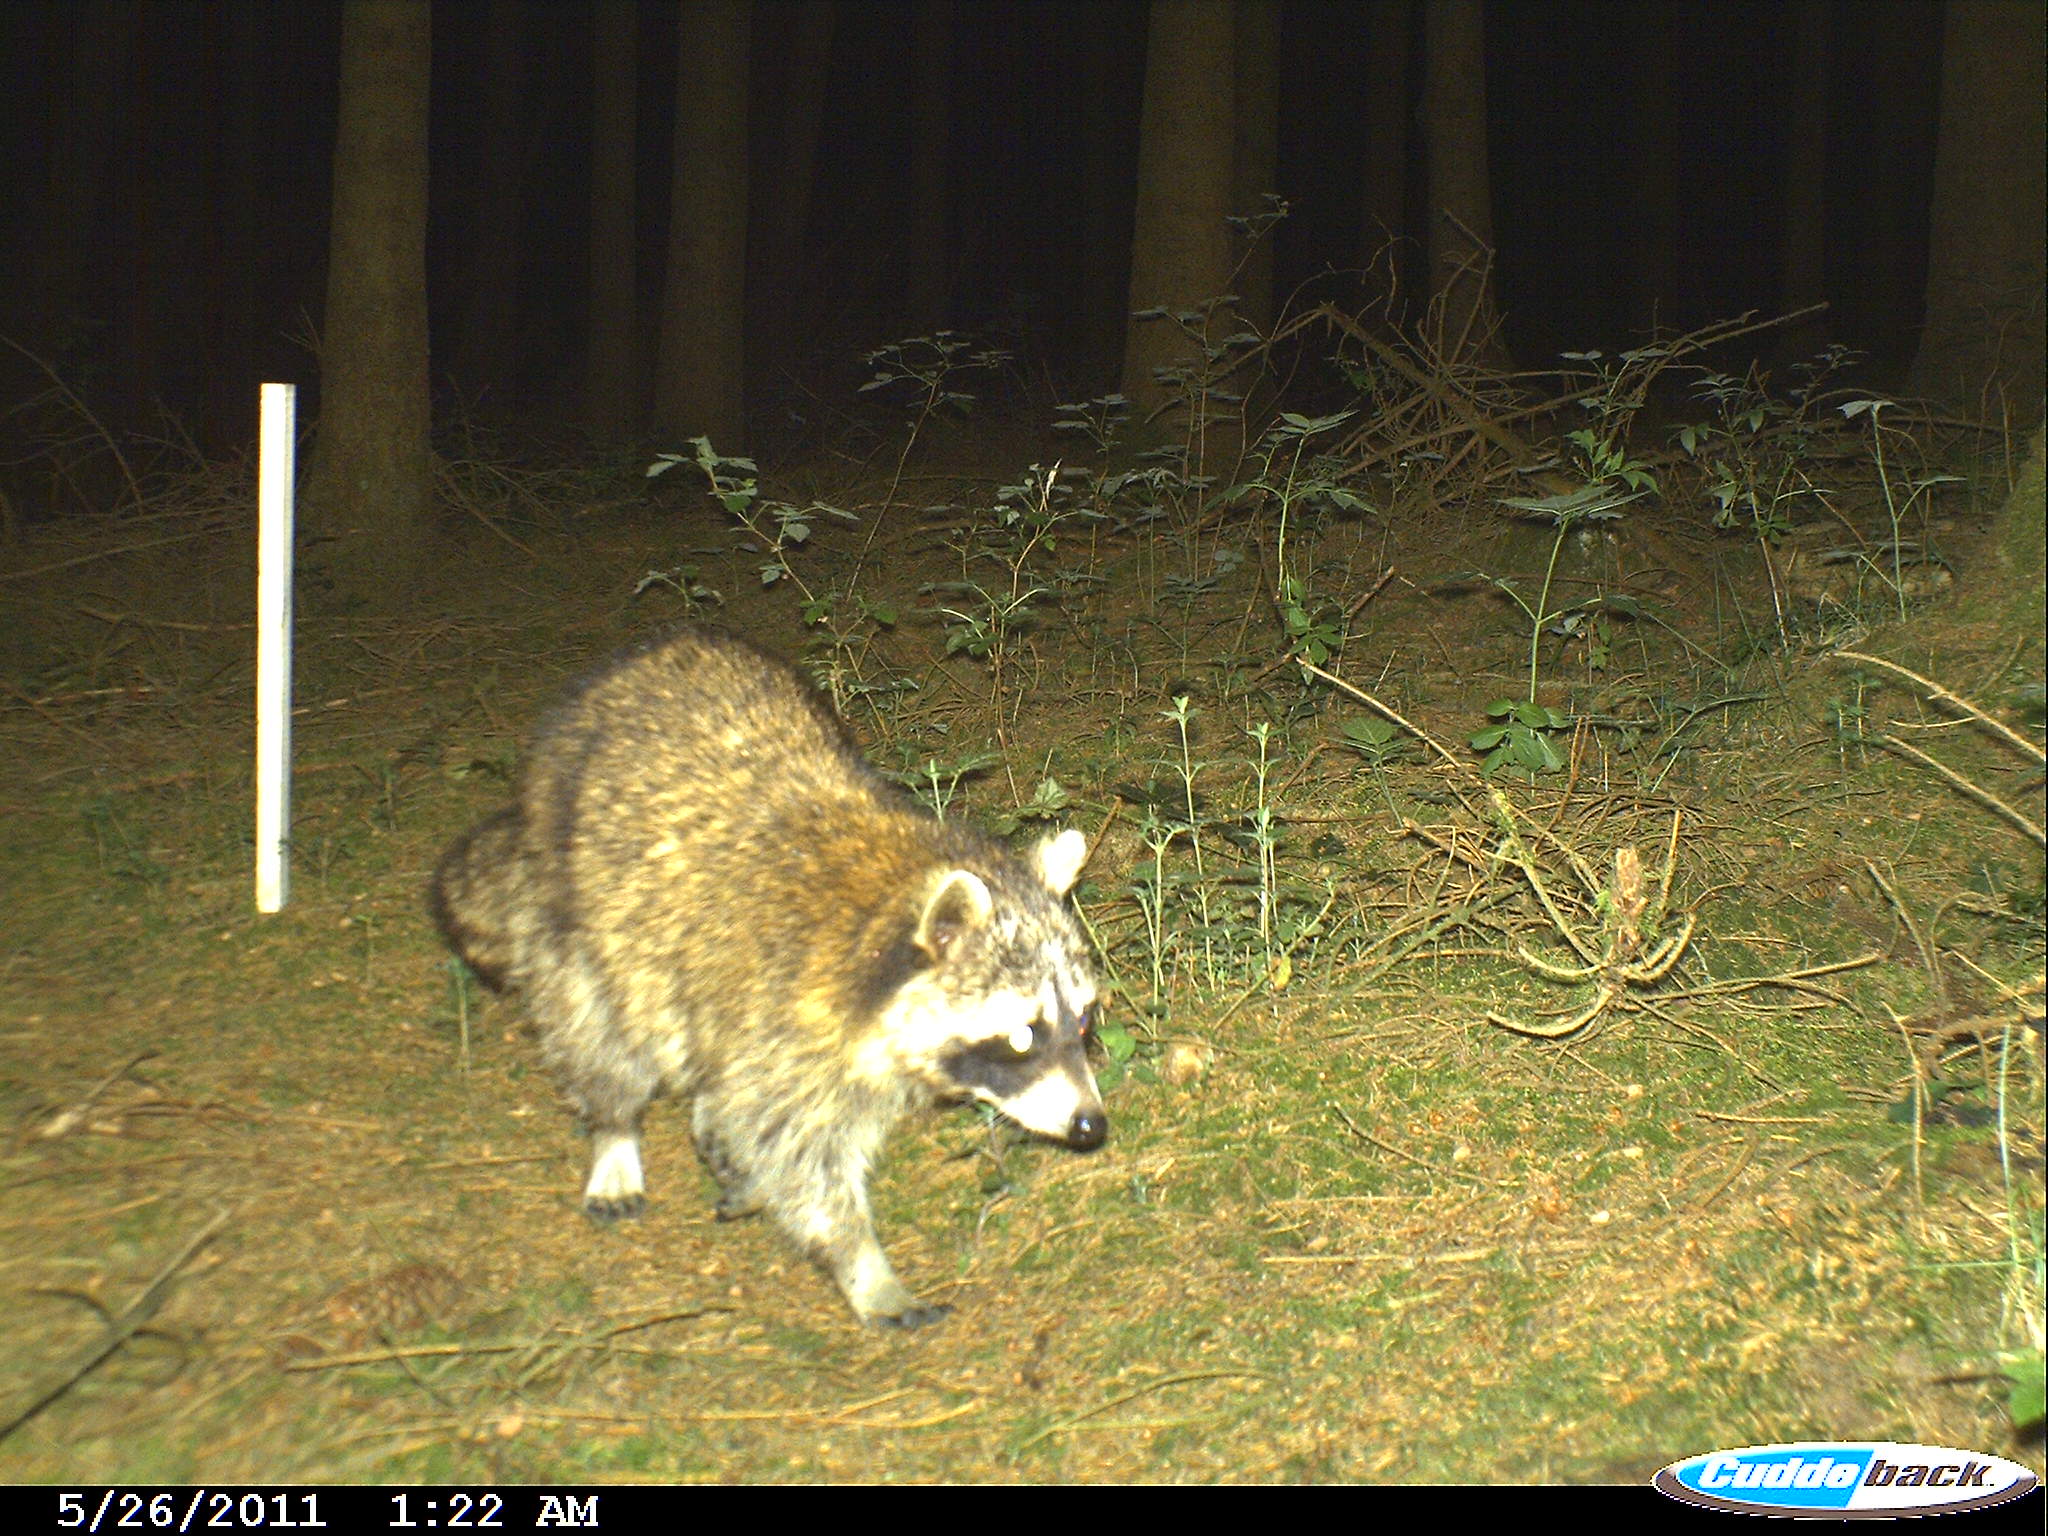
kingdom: Animalia
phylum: Chordata
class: Mammalia
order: Carnivora
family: Procyonidae
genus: Procyon
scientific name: Procyon lotor
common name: Raccoon
